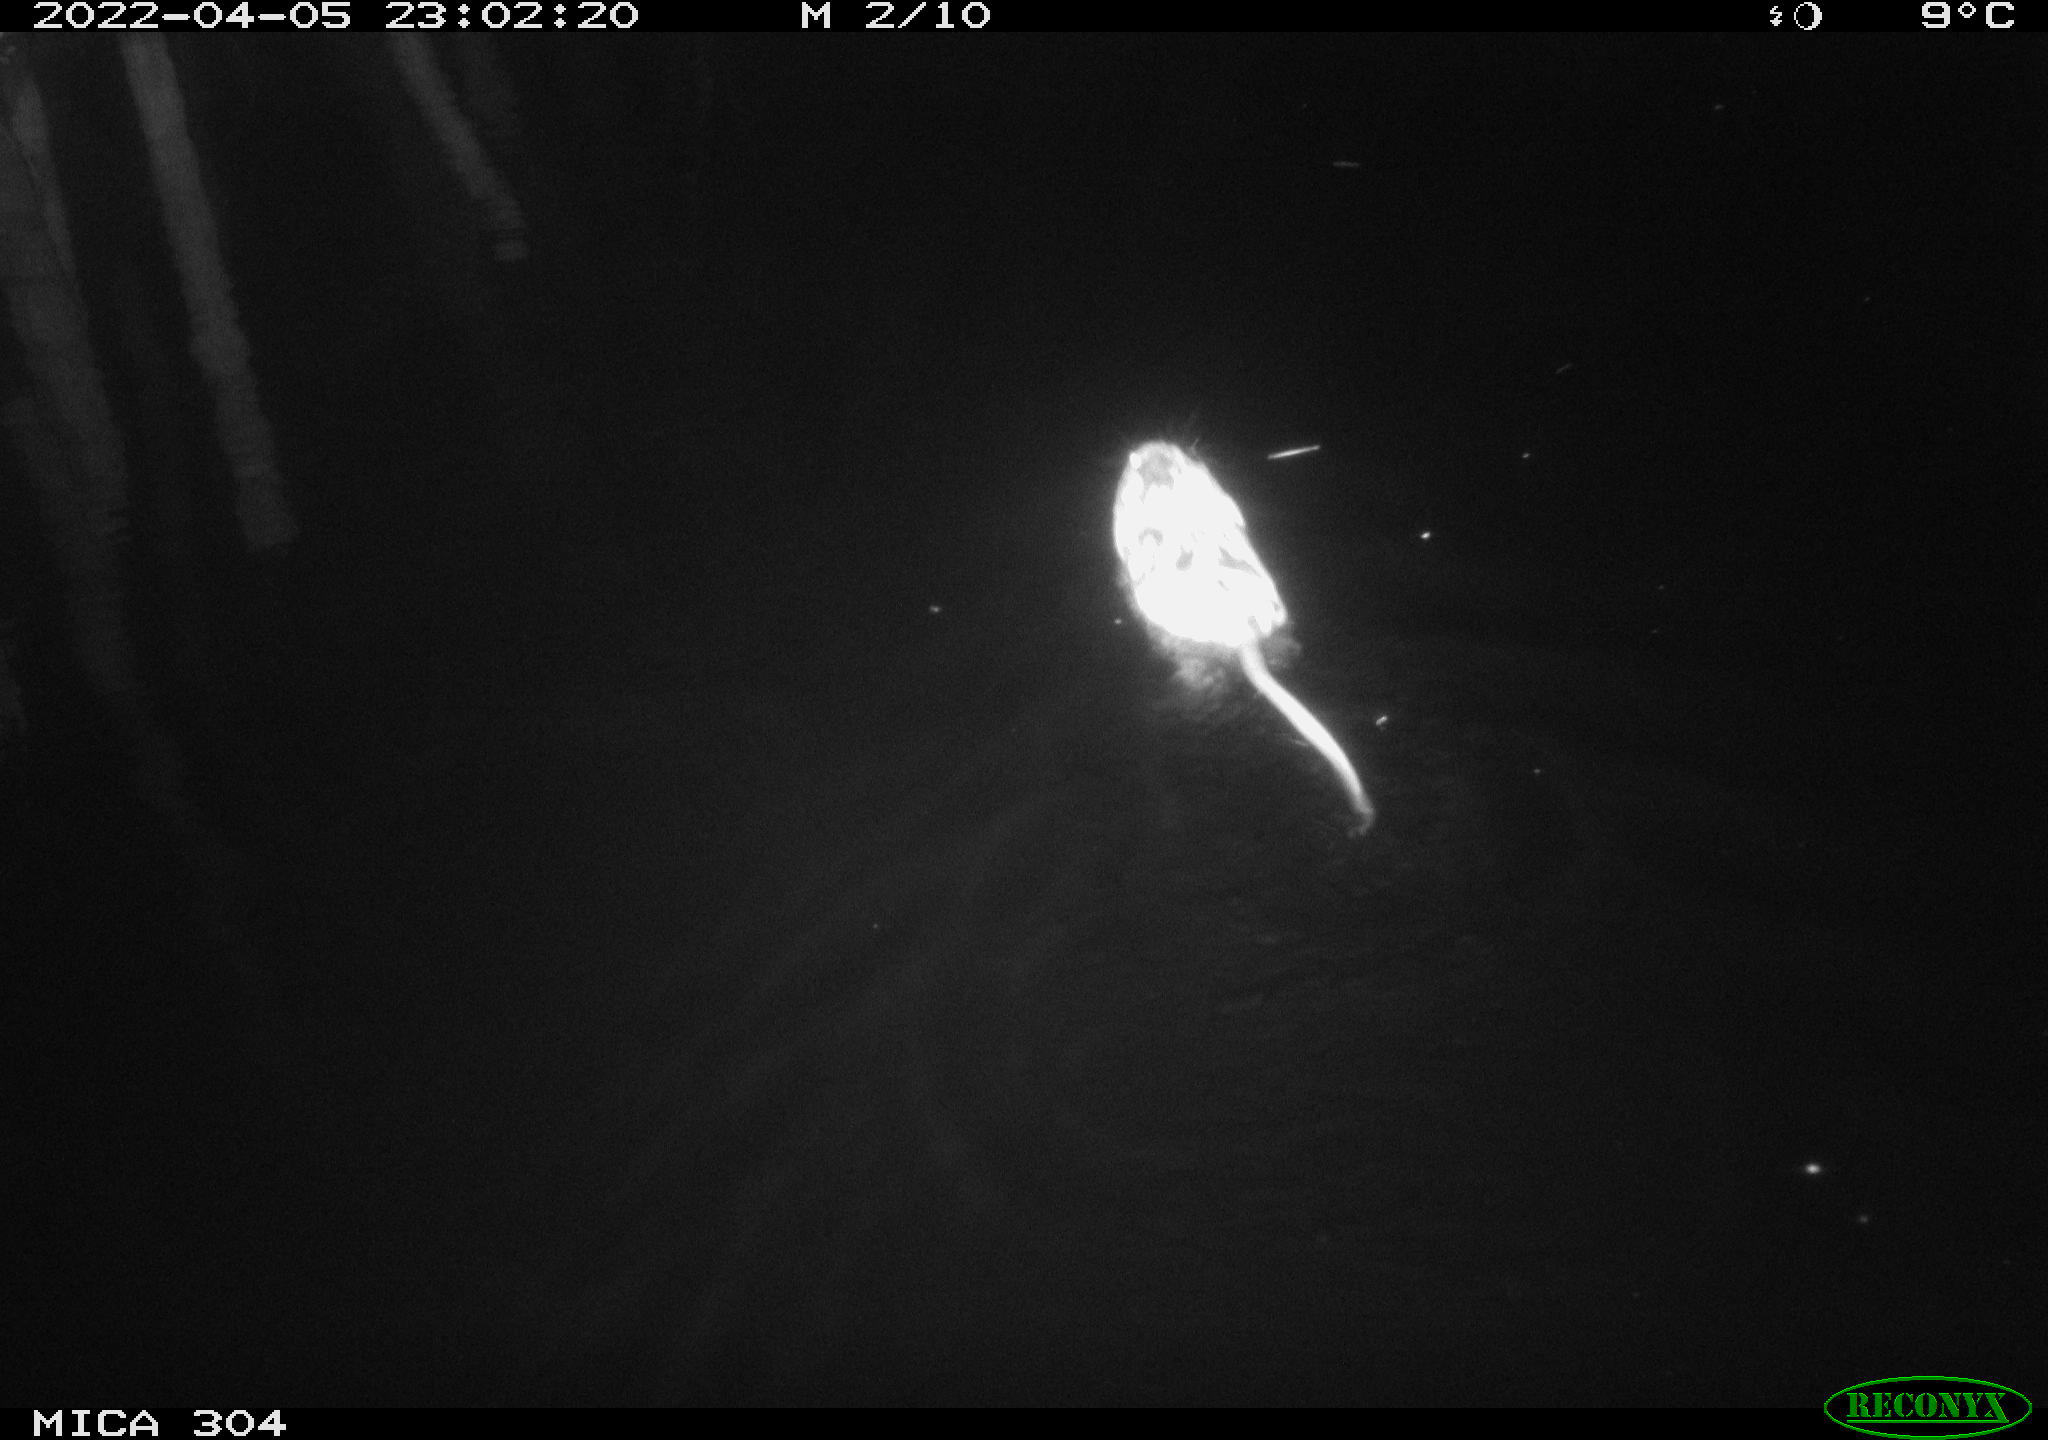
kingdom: Animalia
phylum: Chordata
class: Mammalia
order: Rodentia
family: Cricetidae
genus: Ondatra
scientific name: Ondatra zibethicus
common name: Muskrat
